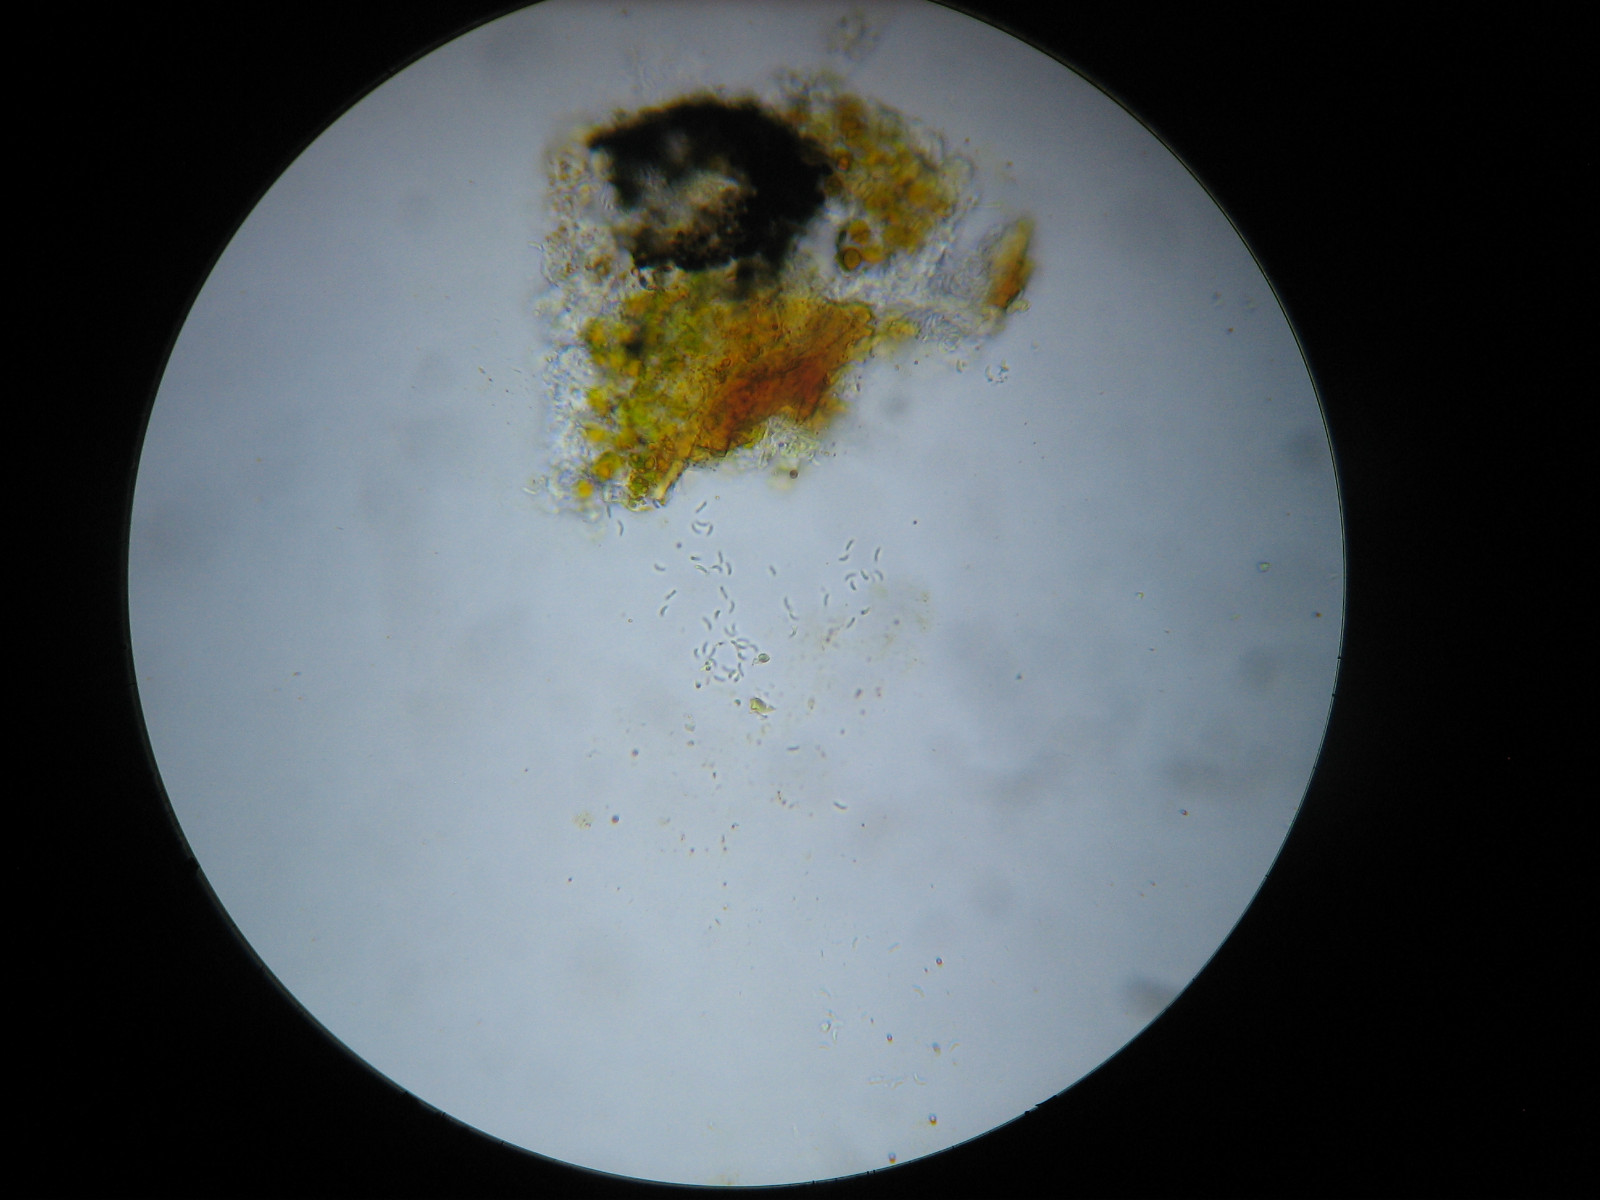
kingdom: Fungi
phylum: Ascomycota
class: Arthoniomycetes
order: Arthoniales
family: Opegraphaceae
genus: Opegrapha
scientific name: Opegrapha niveoatra
